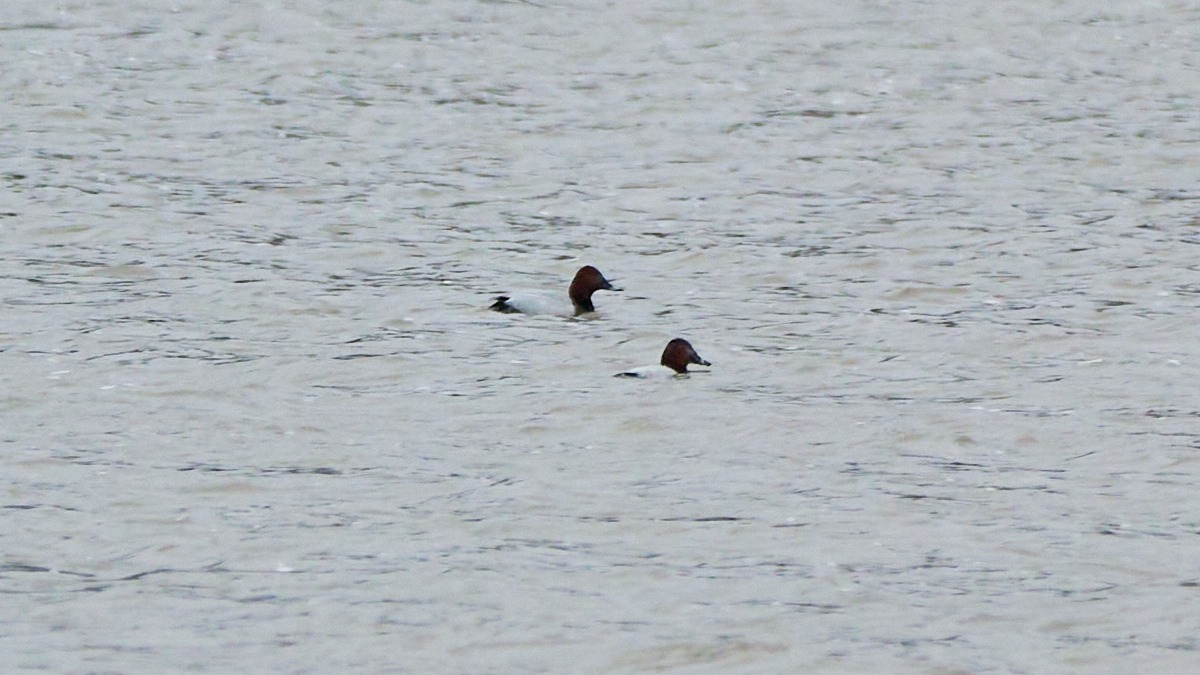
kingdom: Animalia
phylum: Chordata
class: Aves
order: Anseriformes
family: Anatidae
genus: Aythya
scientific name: Aythya ferina
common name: Taffeland
